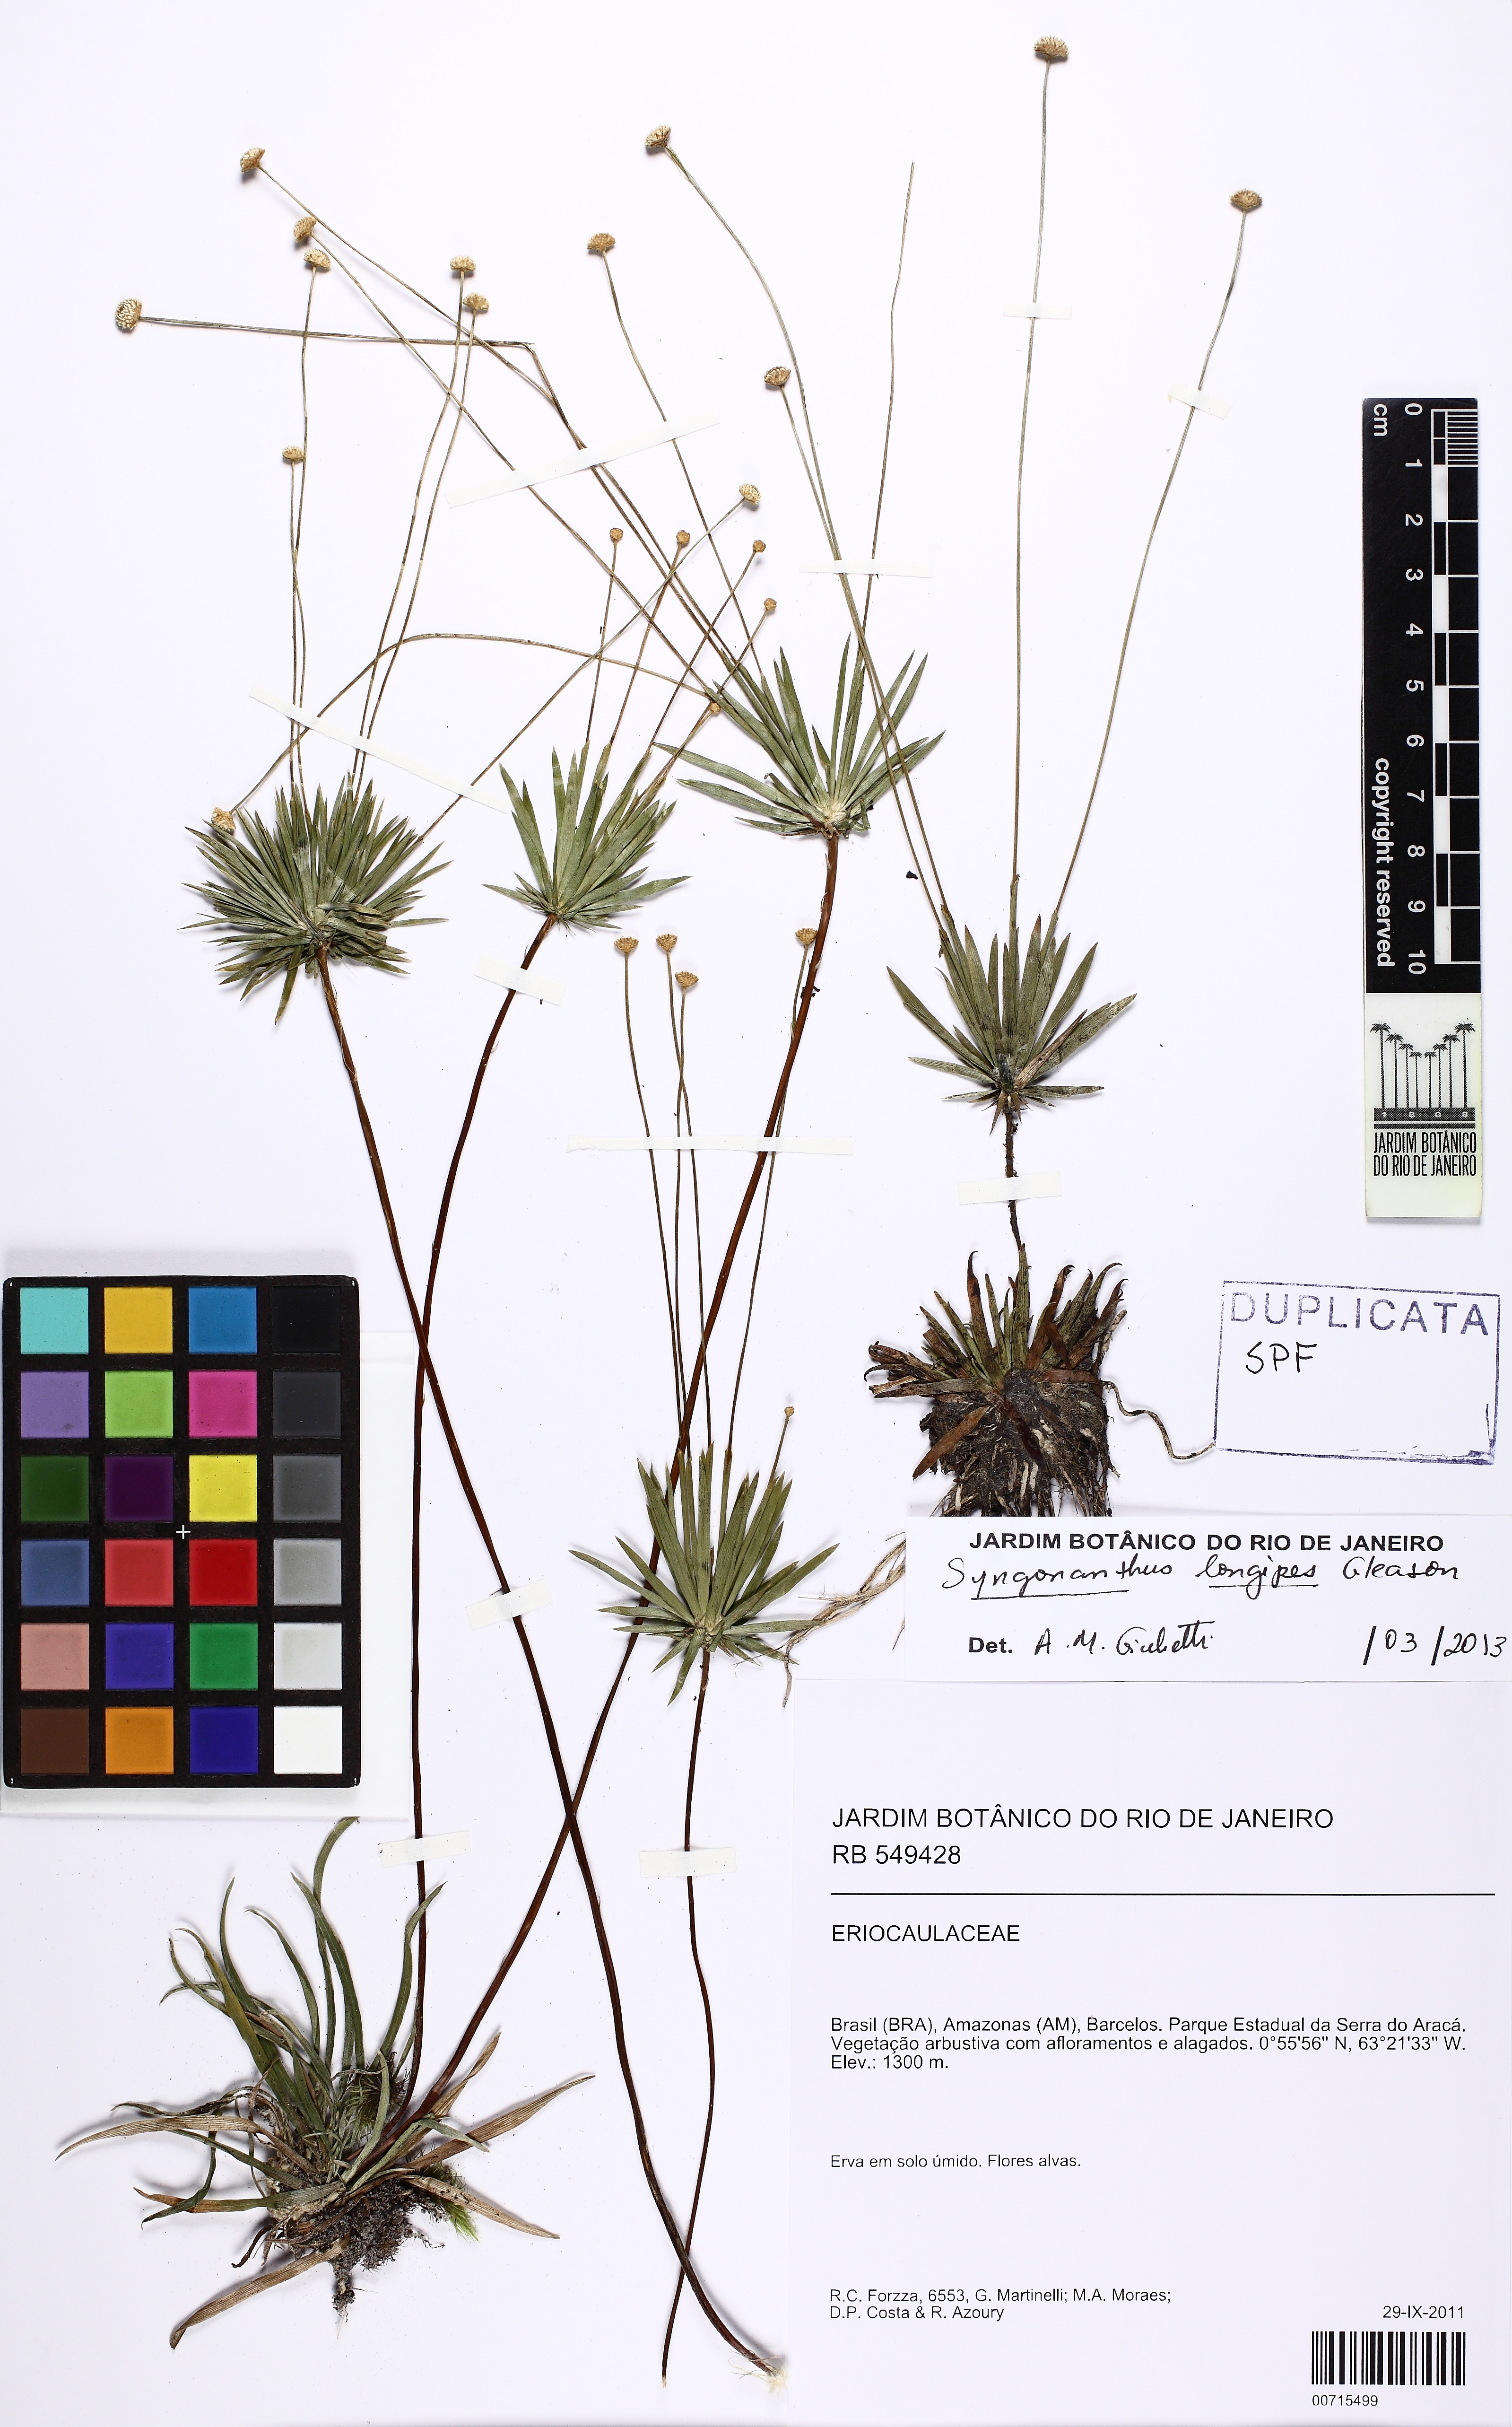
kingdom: Plantae
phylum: Tracheophyta
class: Liliopsida
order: Poales
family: Eriocaulaceae
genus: Syngonanthus
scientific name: Syngonanthus longipes
